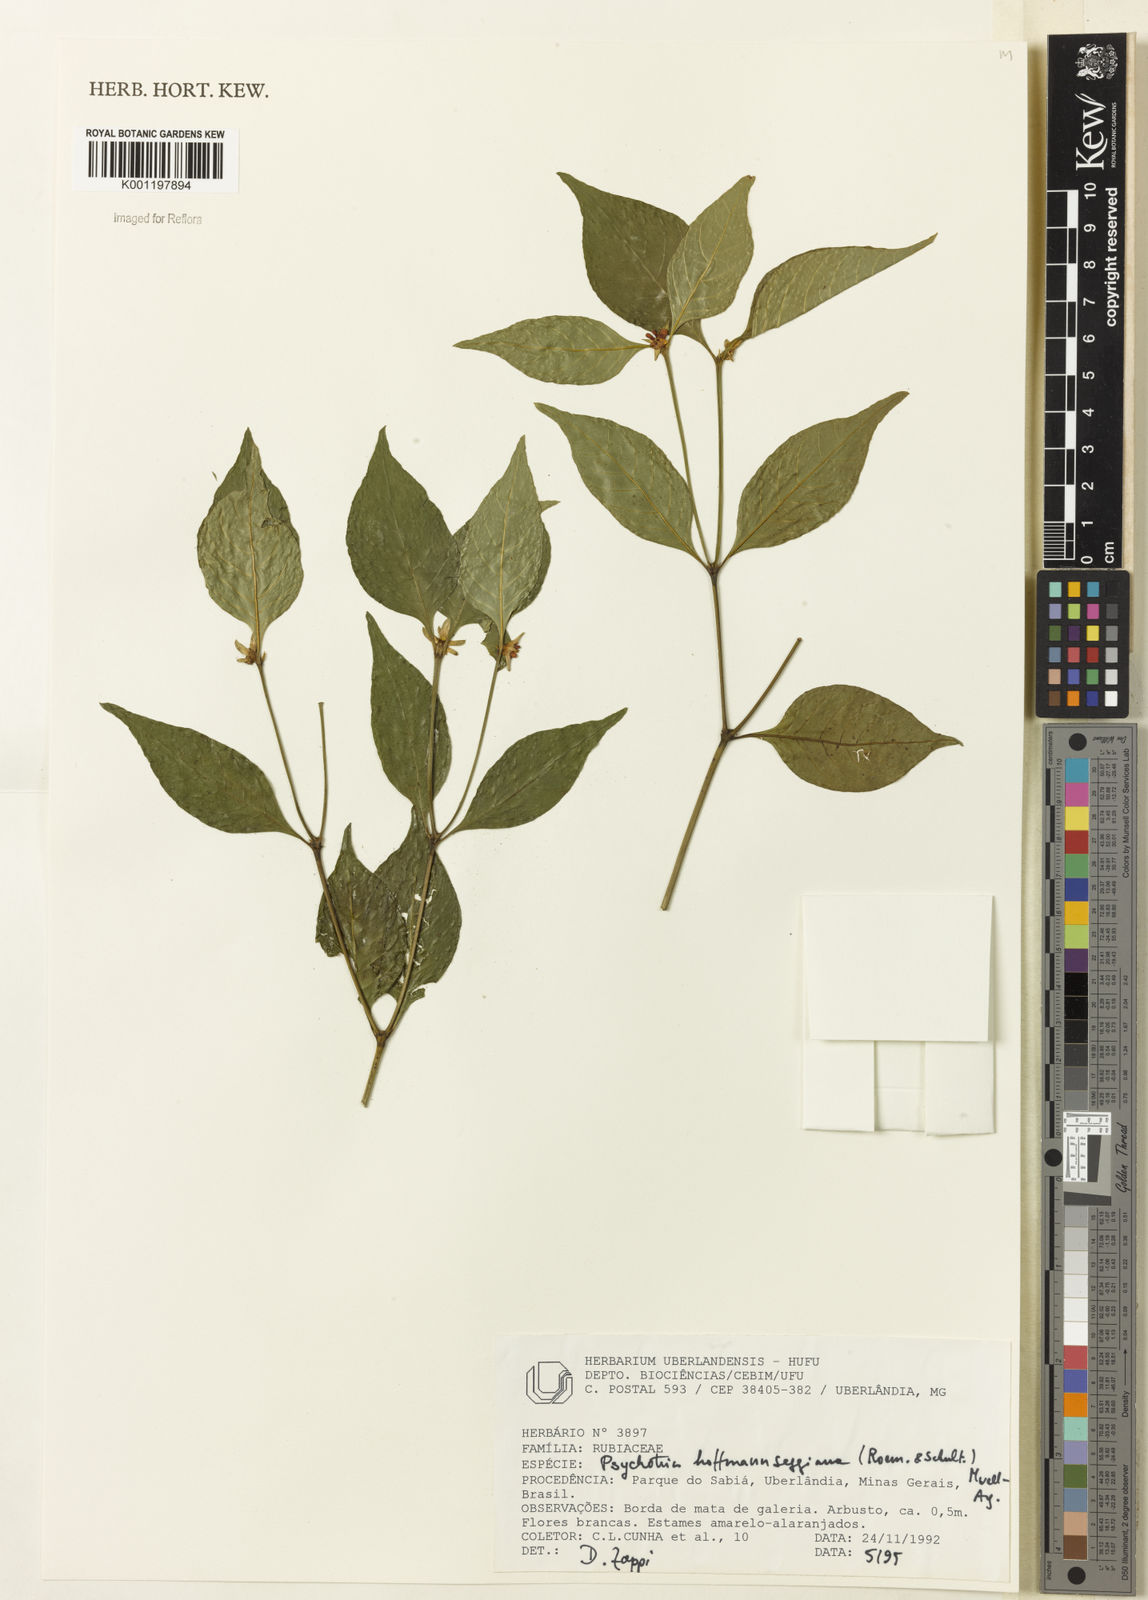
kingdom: Plantae
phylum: Tracheophyta
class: Magnoliopsida
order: Gentianales
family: Rubiaceae
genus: Psychotria
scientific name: Psychotria
